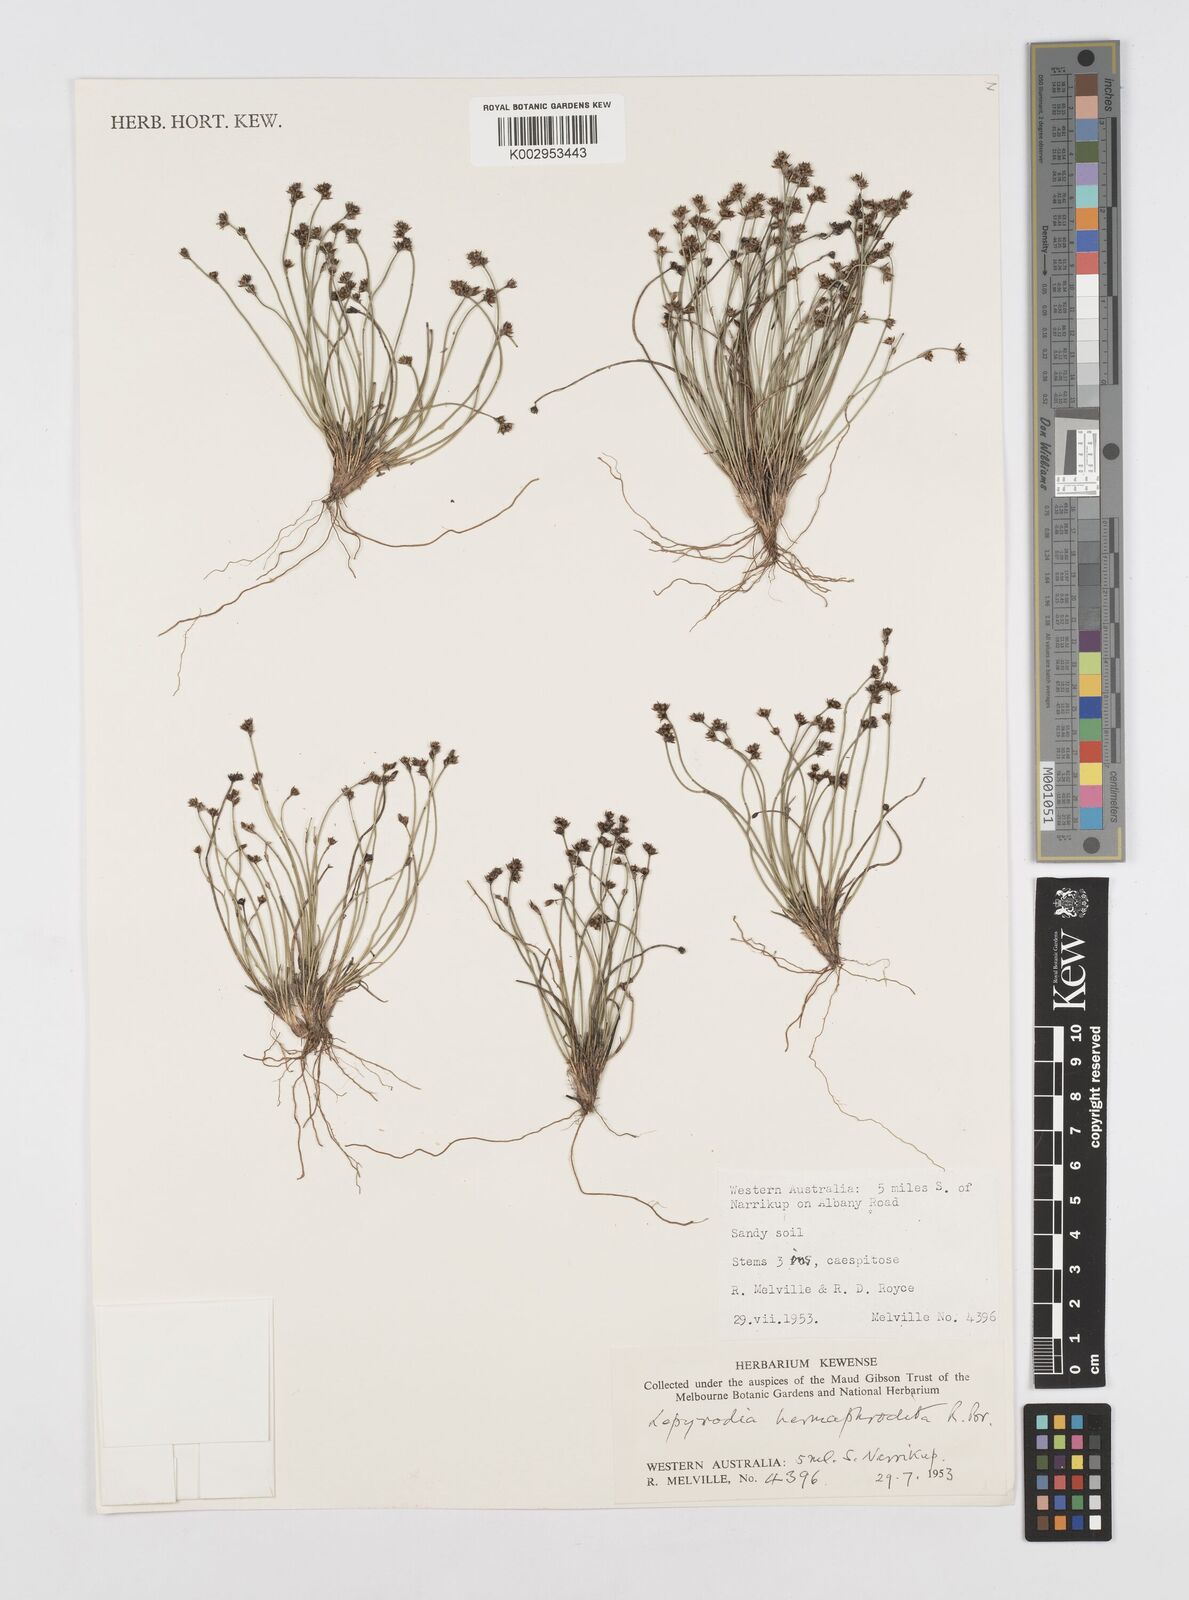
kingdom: Plantae
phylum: Tracheophyta
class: Liliopsida
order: Poales
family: Restionaceae
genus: Lepyrodia
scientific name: Lepyrodia hermaphrodita
